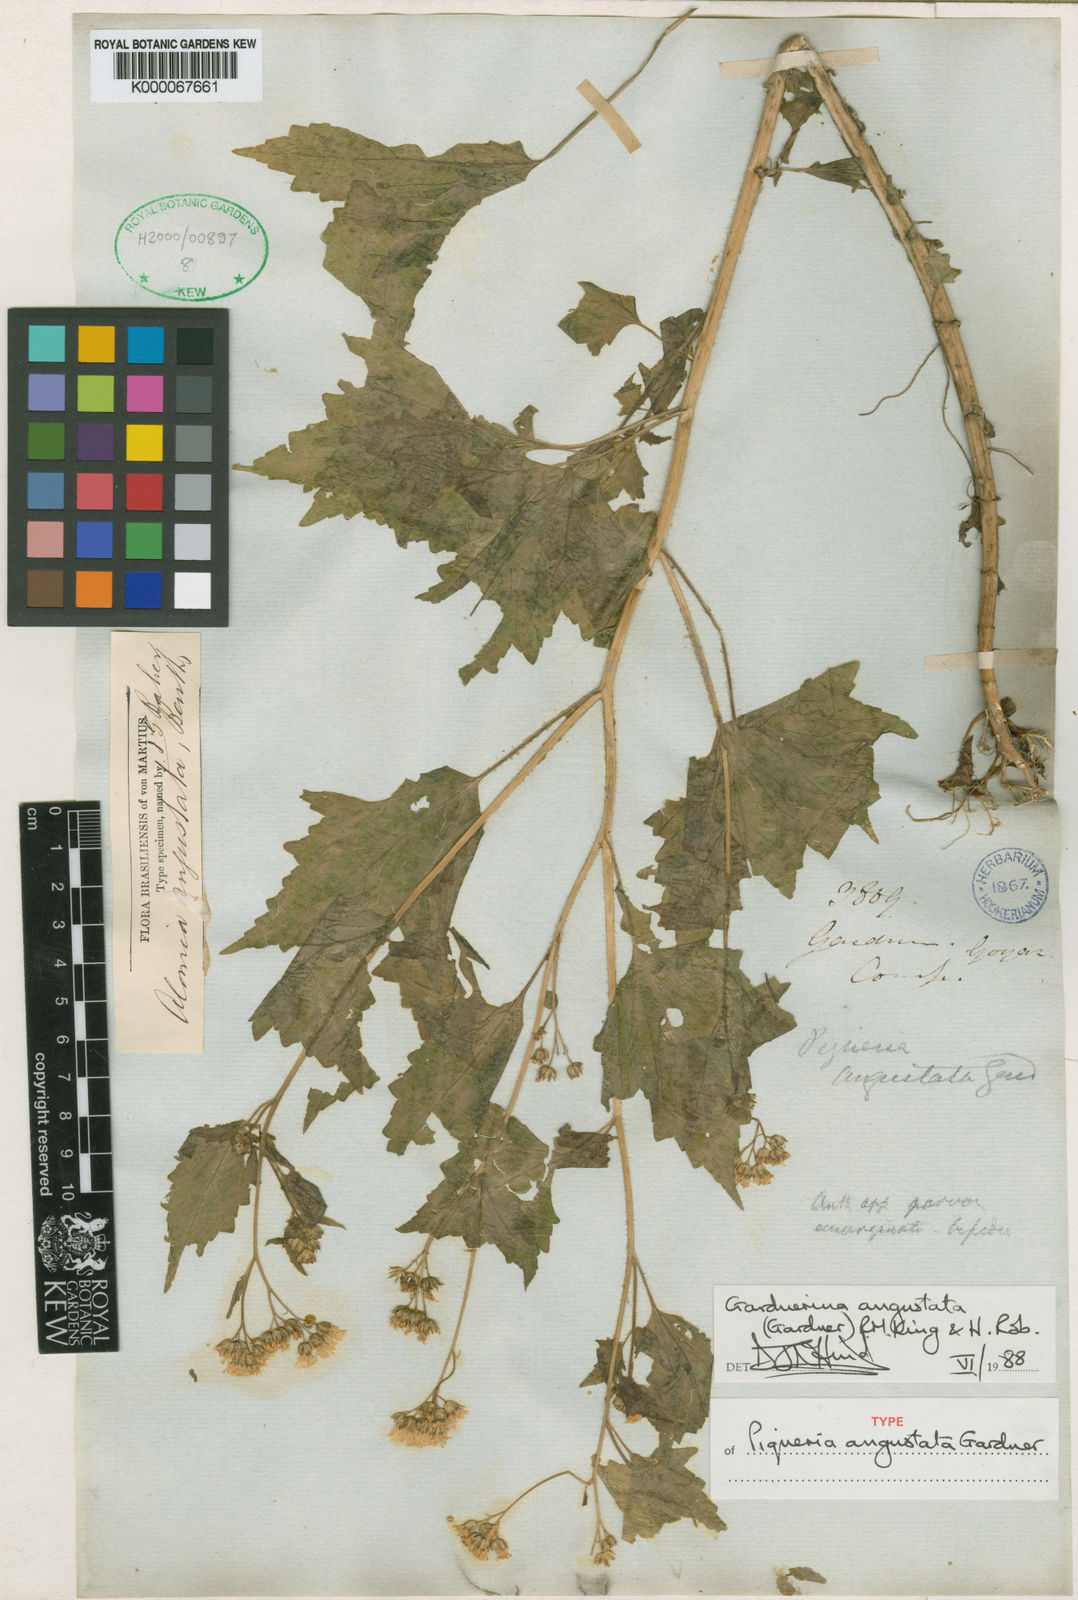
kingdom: Plantae
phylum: Tracheophyta
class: Magnoliopsida
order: Asterales
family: Asteraceae
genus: Gardnerina
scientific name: Gardnerina angustata
